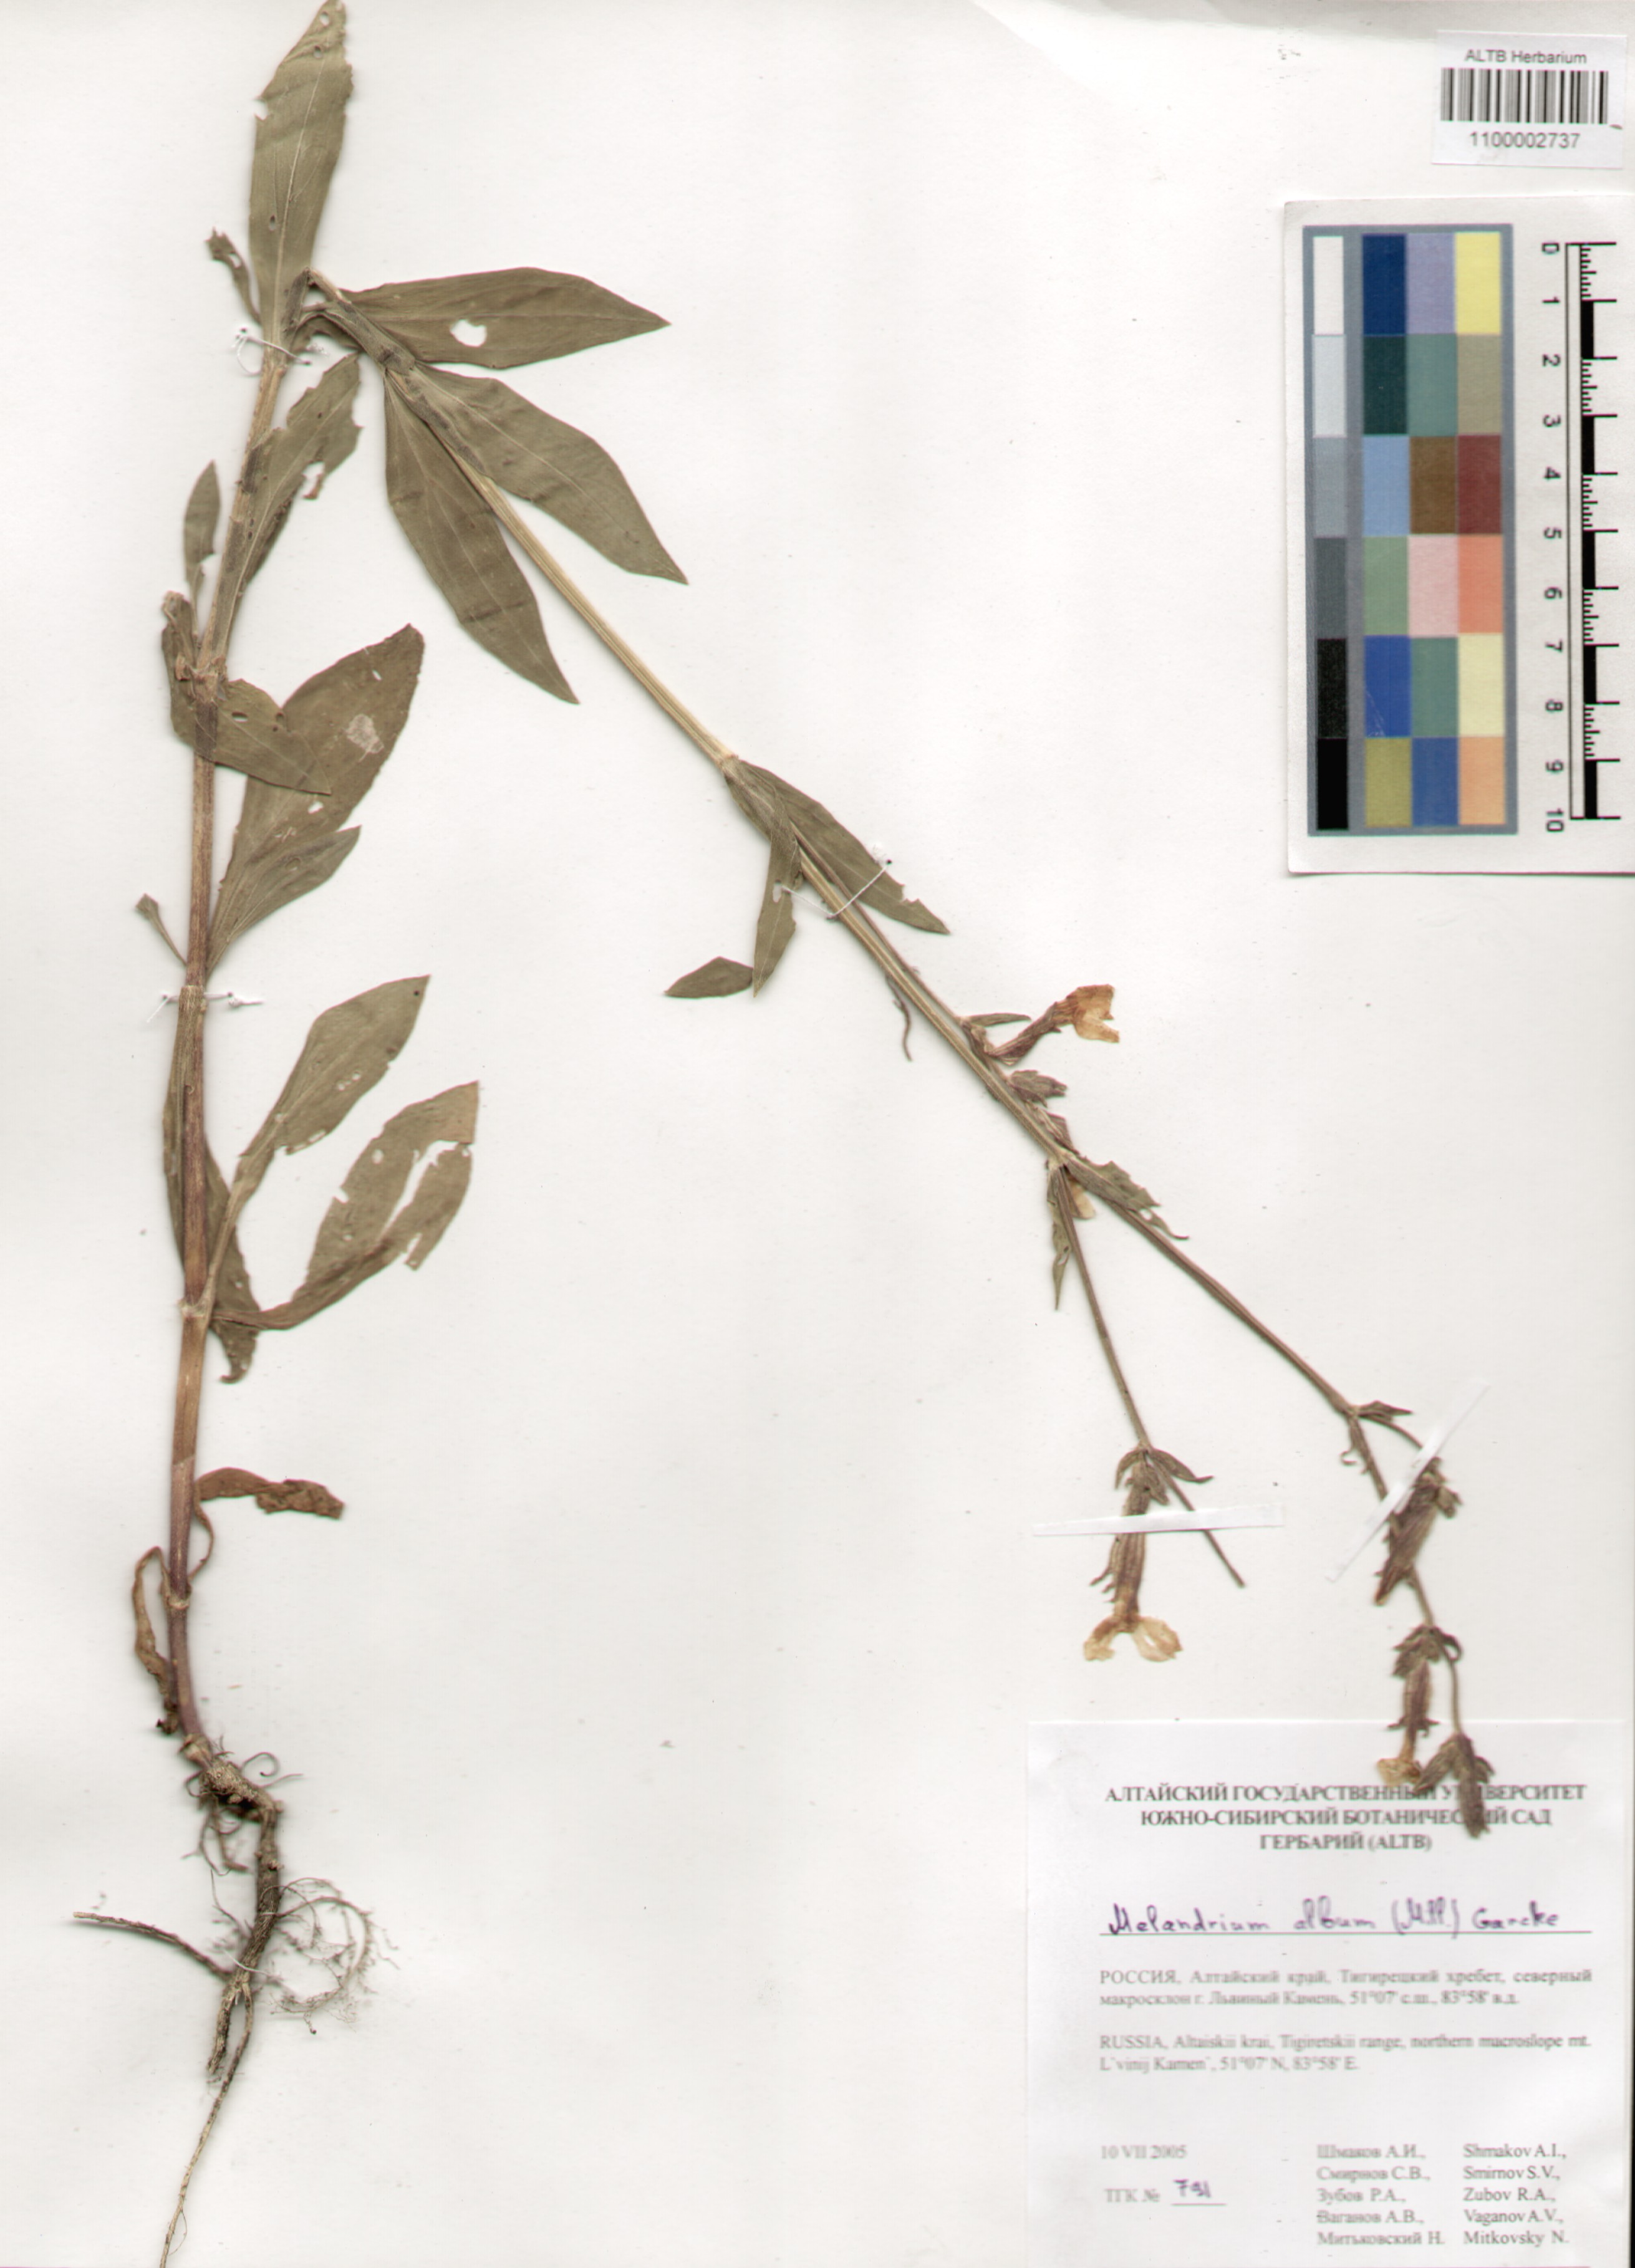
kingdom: Plantae
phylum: Tracheophyta
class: Magnoliopsida
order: Caryophyllales
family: Caryophyllaceae
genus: Silene
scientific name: Silene latifolia
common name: White campion
